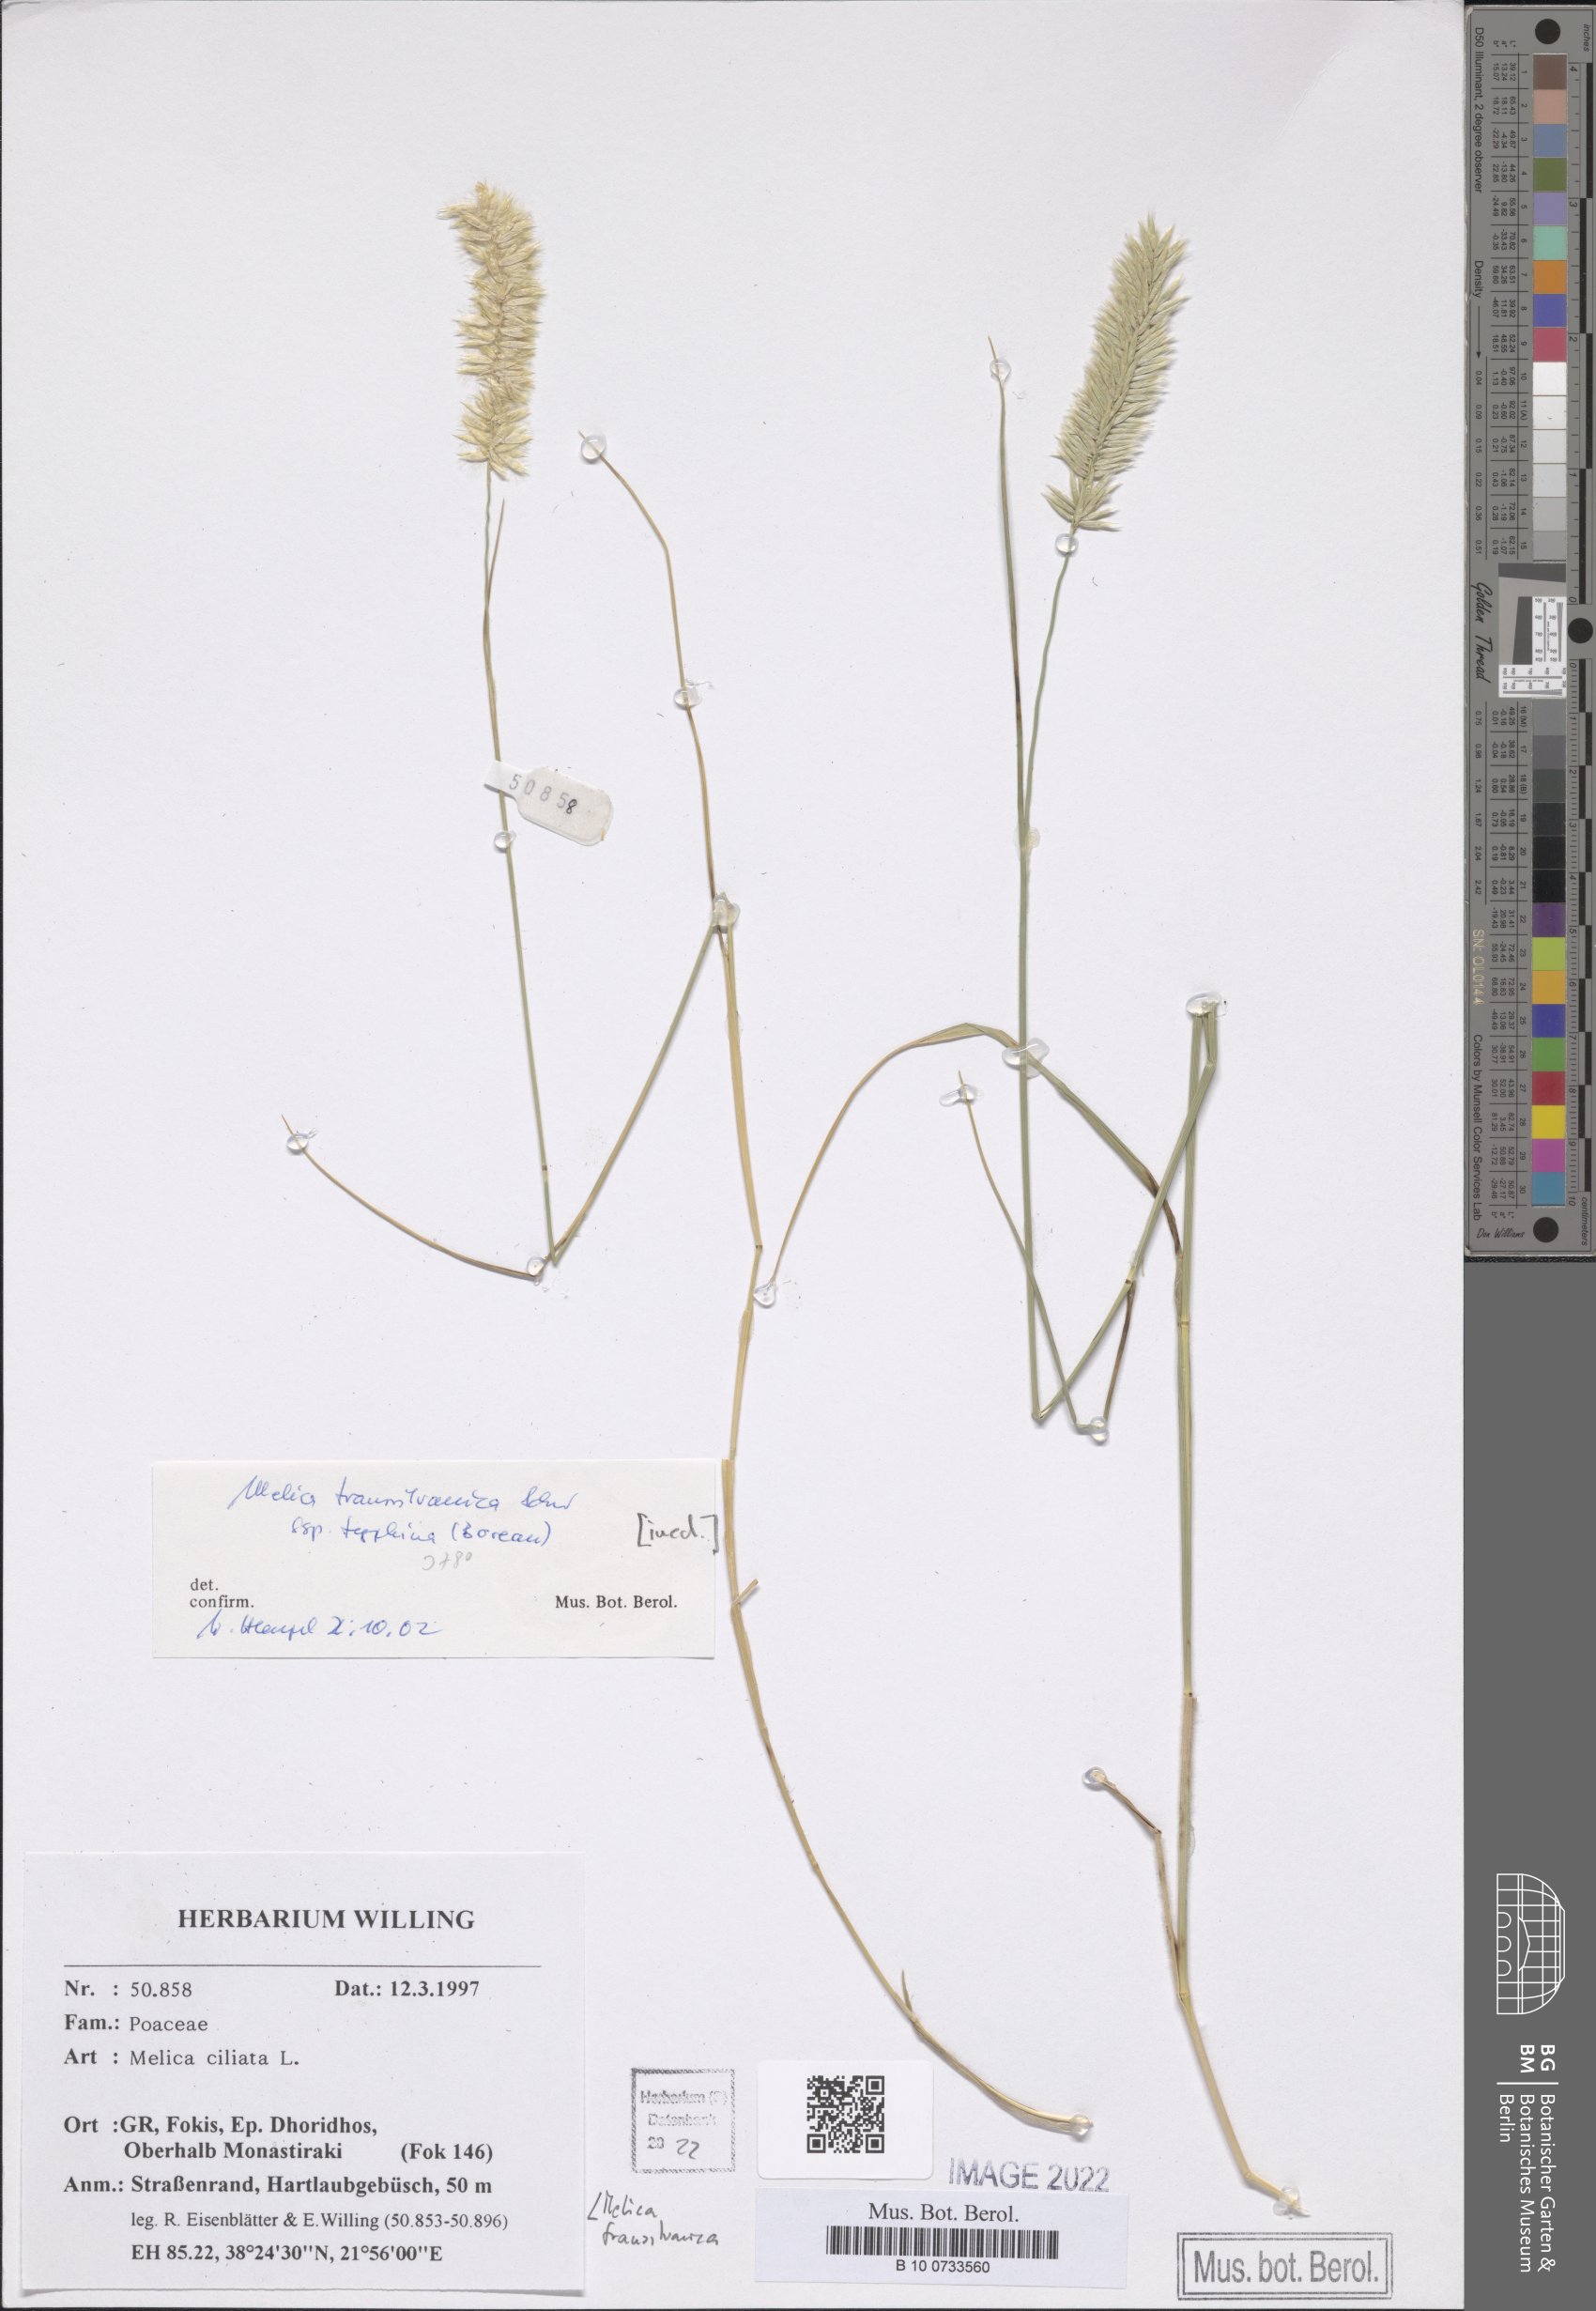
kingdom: Plantae
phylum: Tracheophyta
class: Liliopsida
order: Poales
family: Poaceae
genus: Melica
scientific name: Melica transsilvanica
